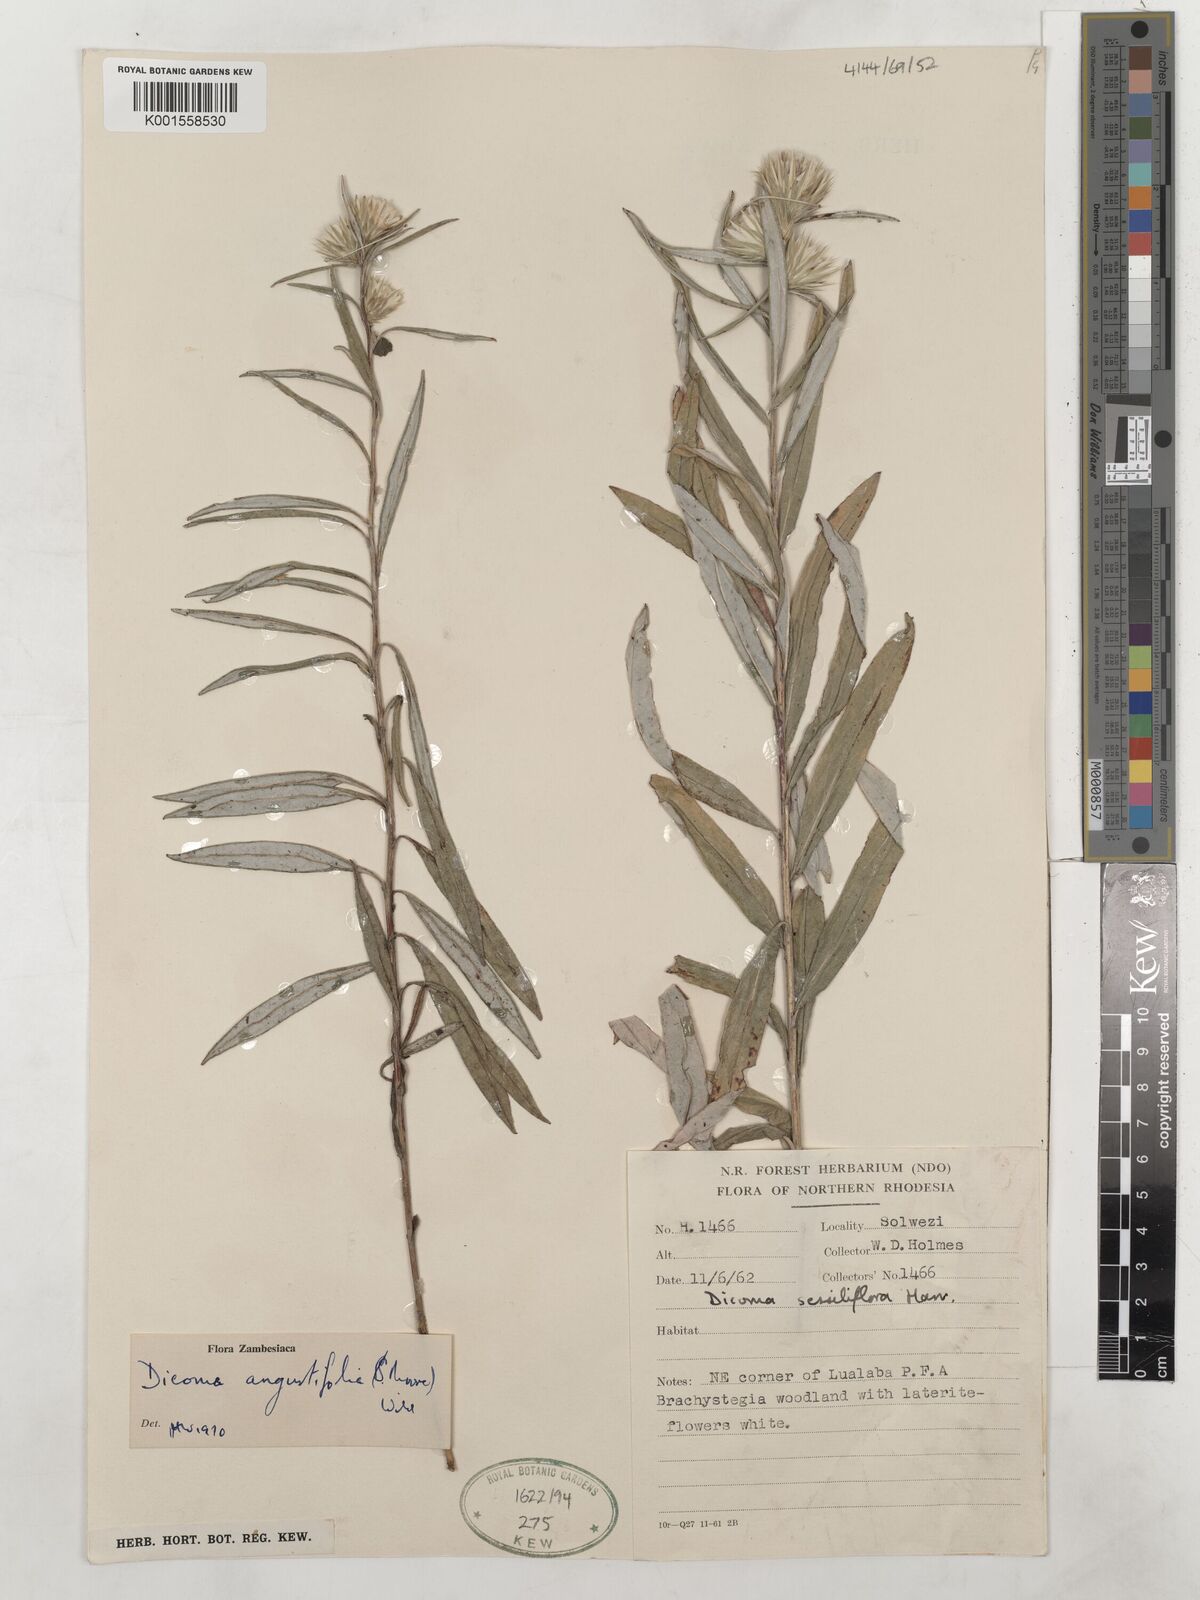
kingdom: Plantae
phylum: Tracheophyta
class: Magnoliopsida
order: Asterales
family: Asteraceae
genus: Macledium
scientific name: Macledium poggei
